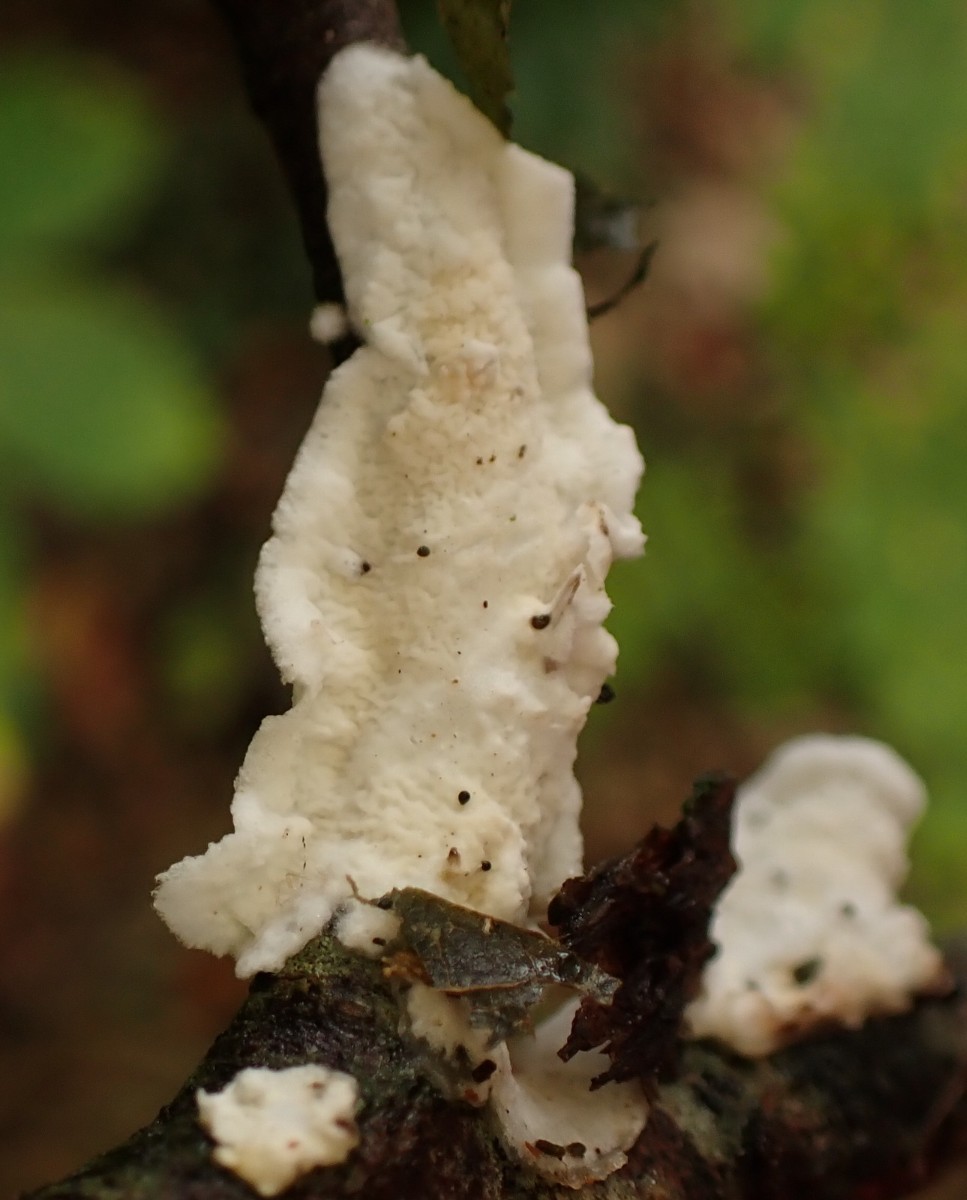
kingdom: Fungi
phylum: Basidiomycota
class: Agaricomycetes
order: Polyporales
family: Irpicaceae
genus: Byssomerulius
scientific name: Byssomerulius corium
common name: læder-åresvamp
